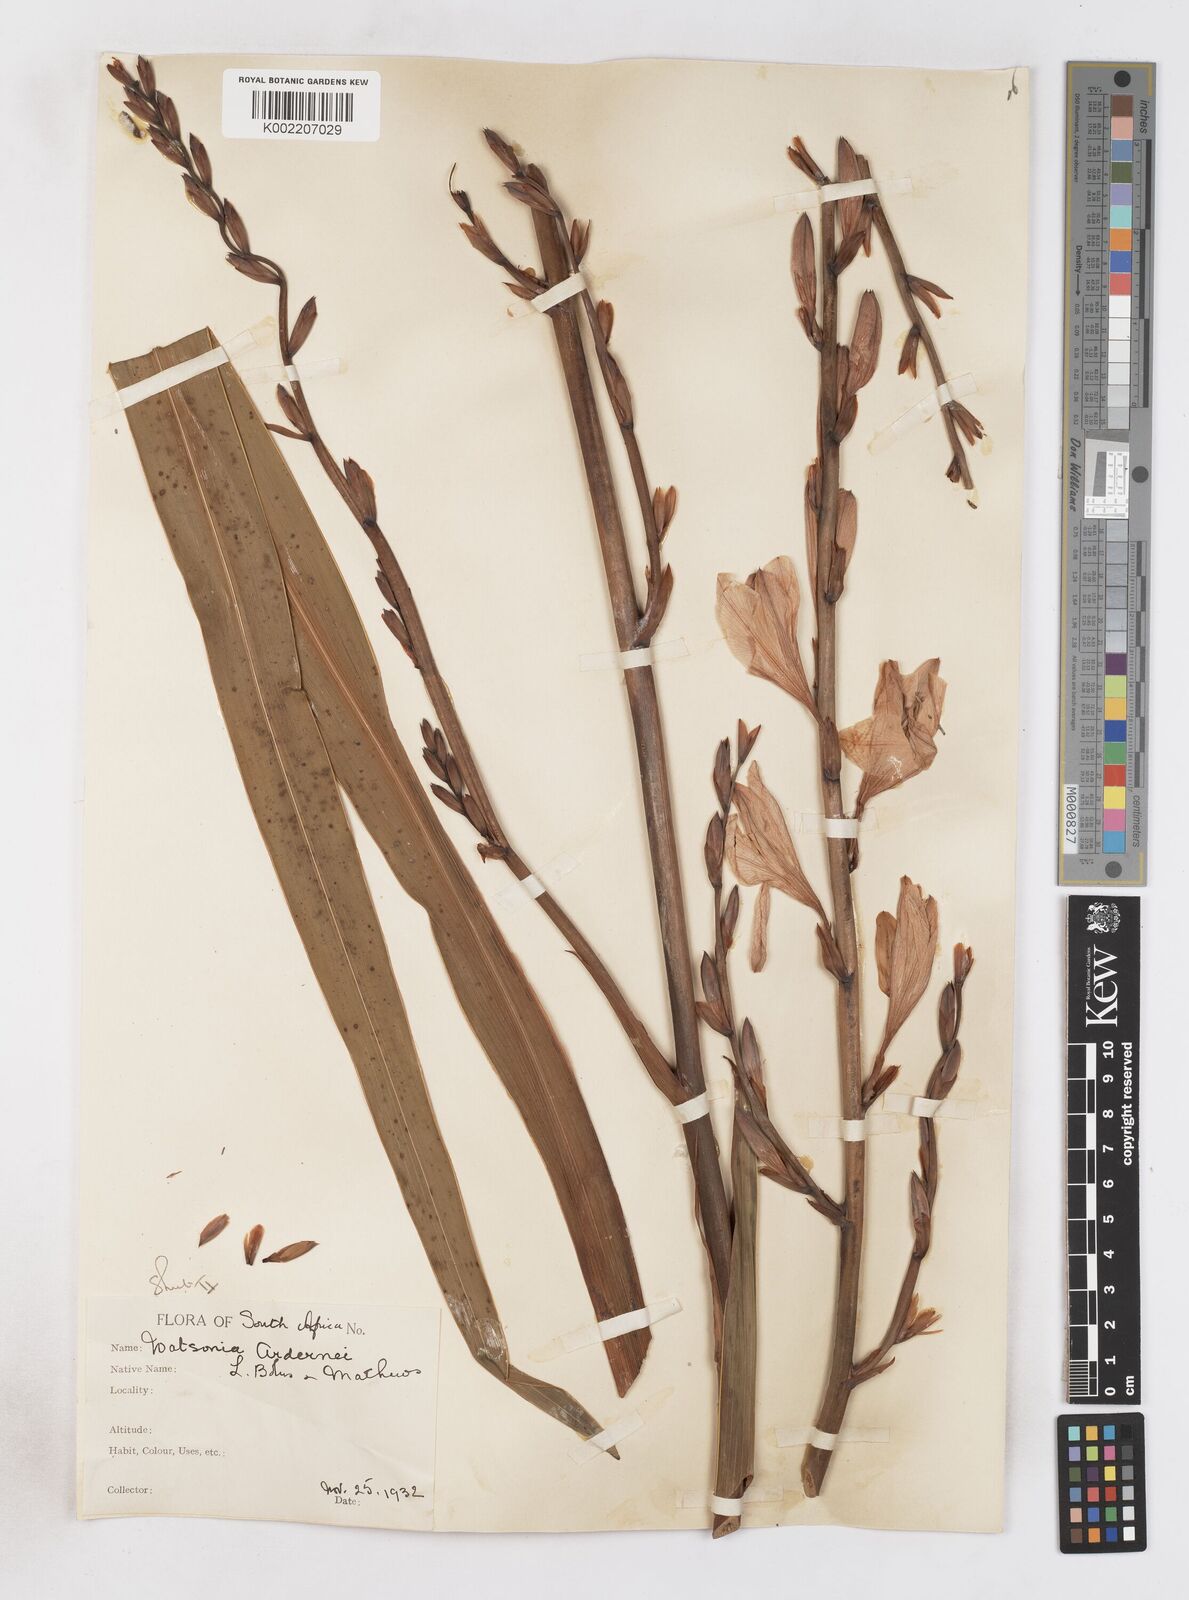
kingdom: Plantae
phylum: Tracheophyta
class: Liliopsida
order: Asparagales
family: Iridaceae
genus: Watsonia
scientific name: Watsonia borbonica
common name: Bugle-lily
